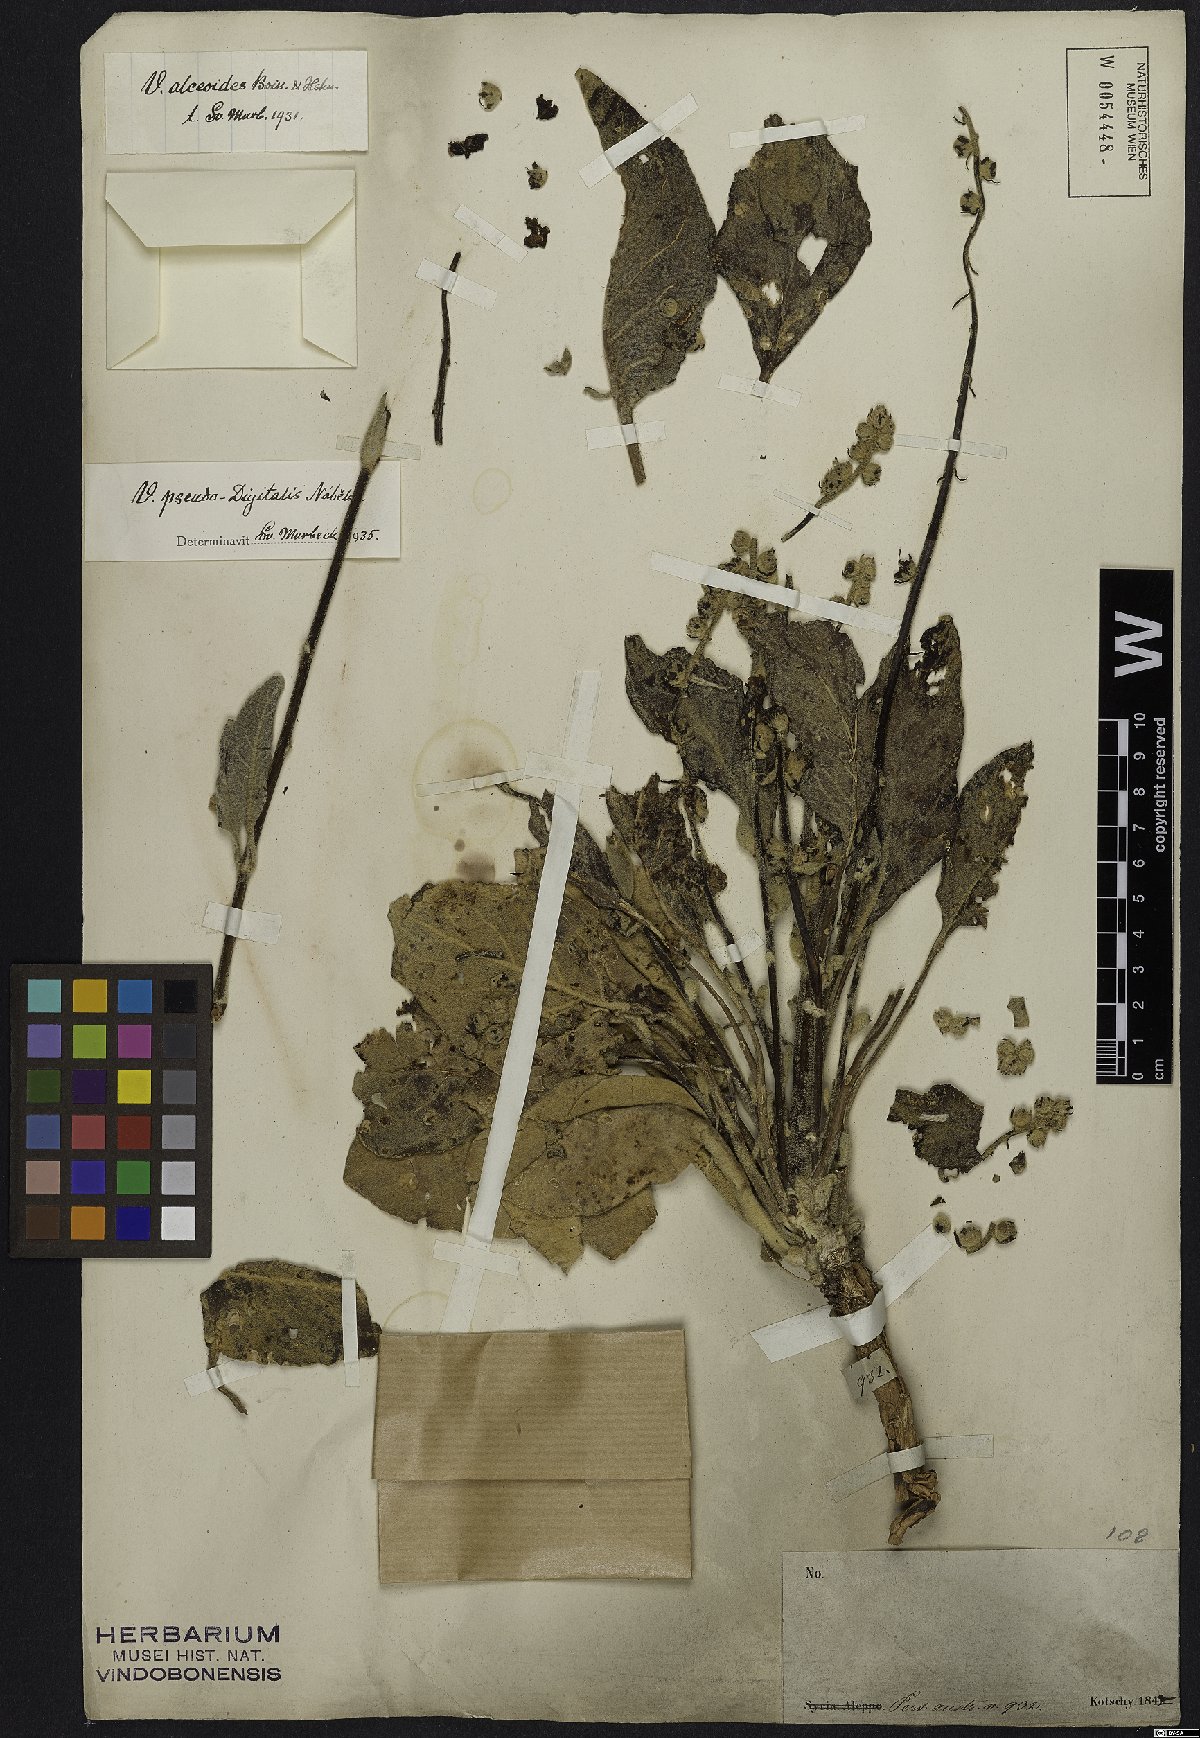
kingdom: Plantae
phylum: Tracheophyta
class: Magnoliopsida
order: Lamiales
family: Scrophulariaceae
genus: Verbascum
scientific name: Verbascum pseudodigitalis
